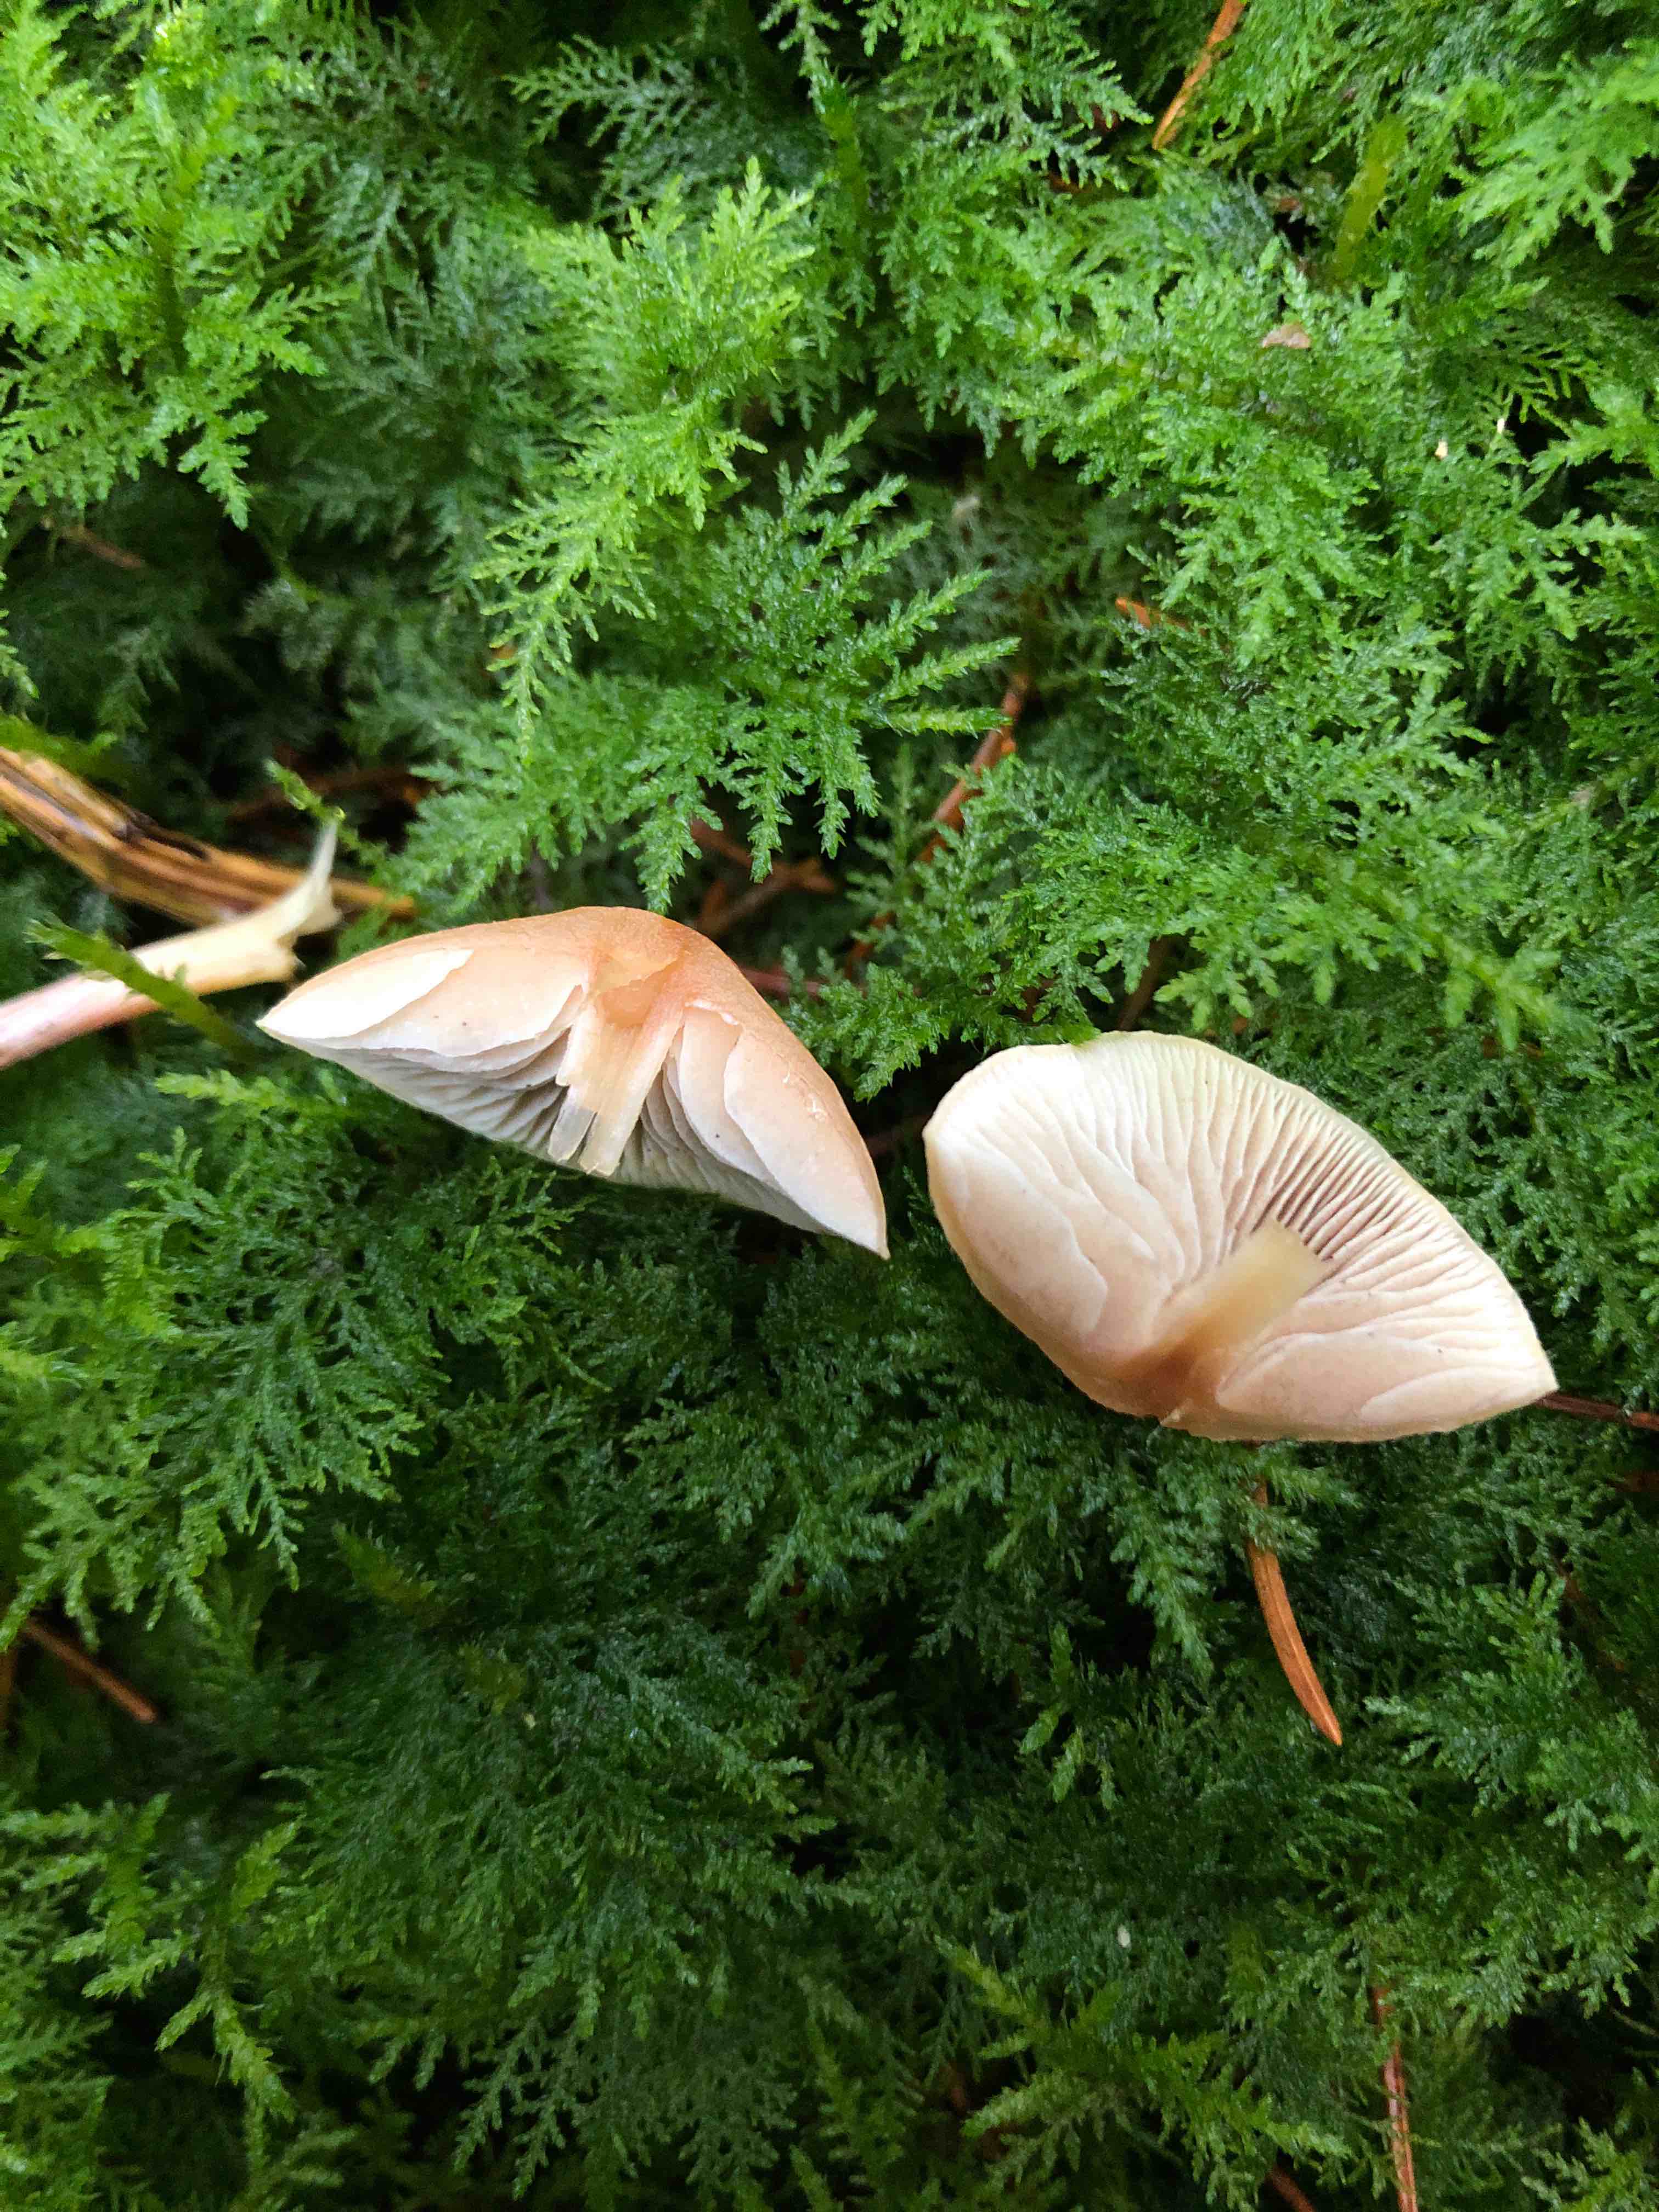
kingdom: Fungi
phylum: Basidiomycota
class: Agaricomycetes
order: Agaricales
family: Strophariaceae
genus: Hypholoma
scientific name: Hypholoma
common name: svovlhat
